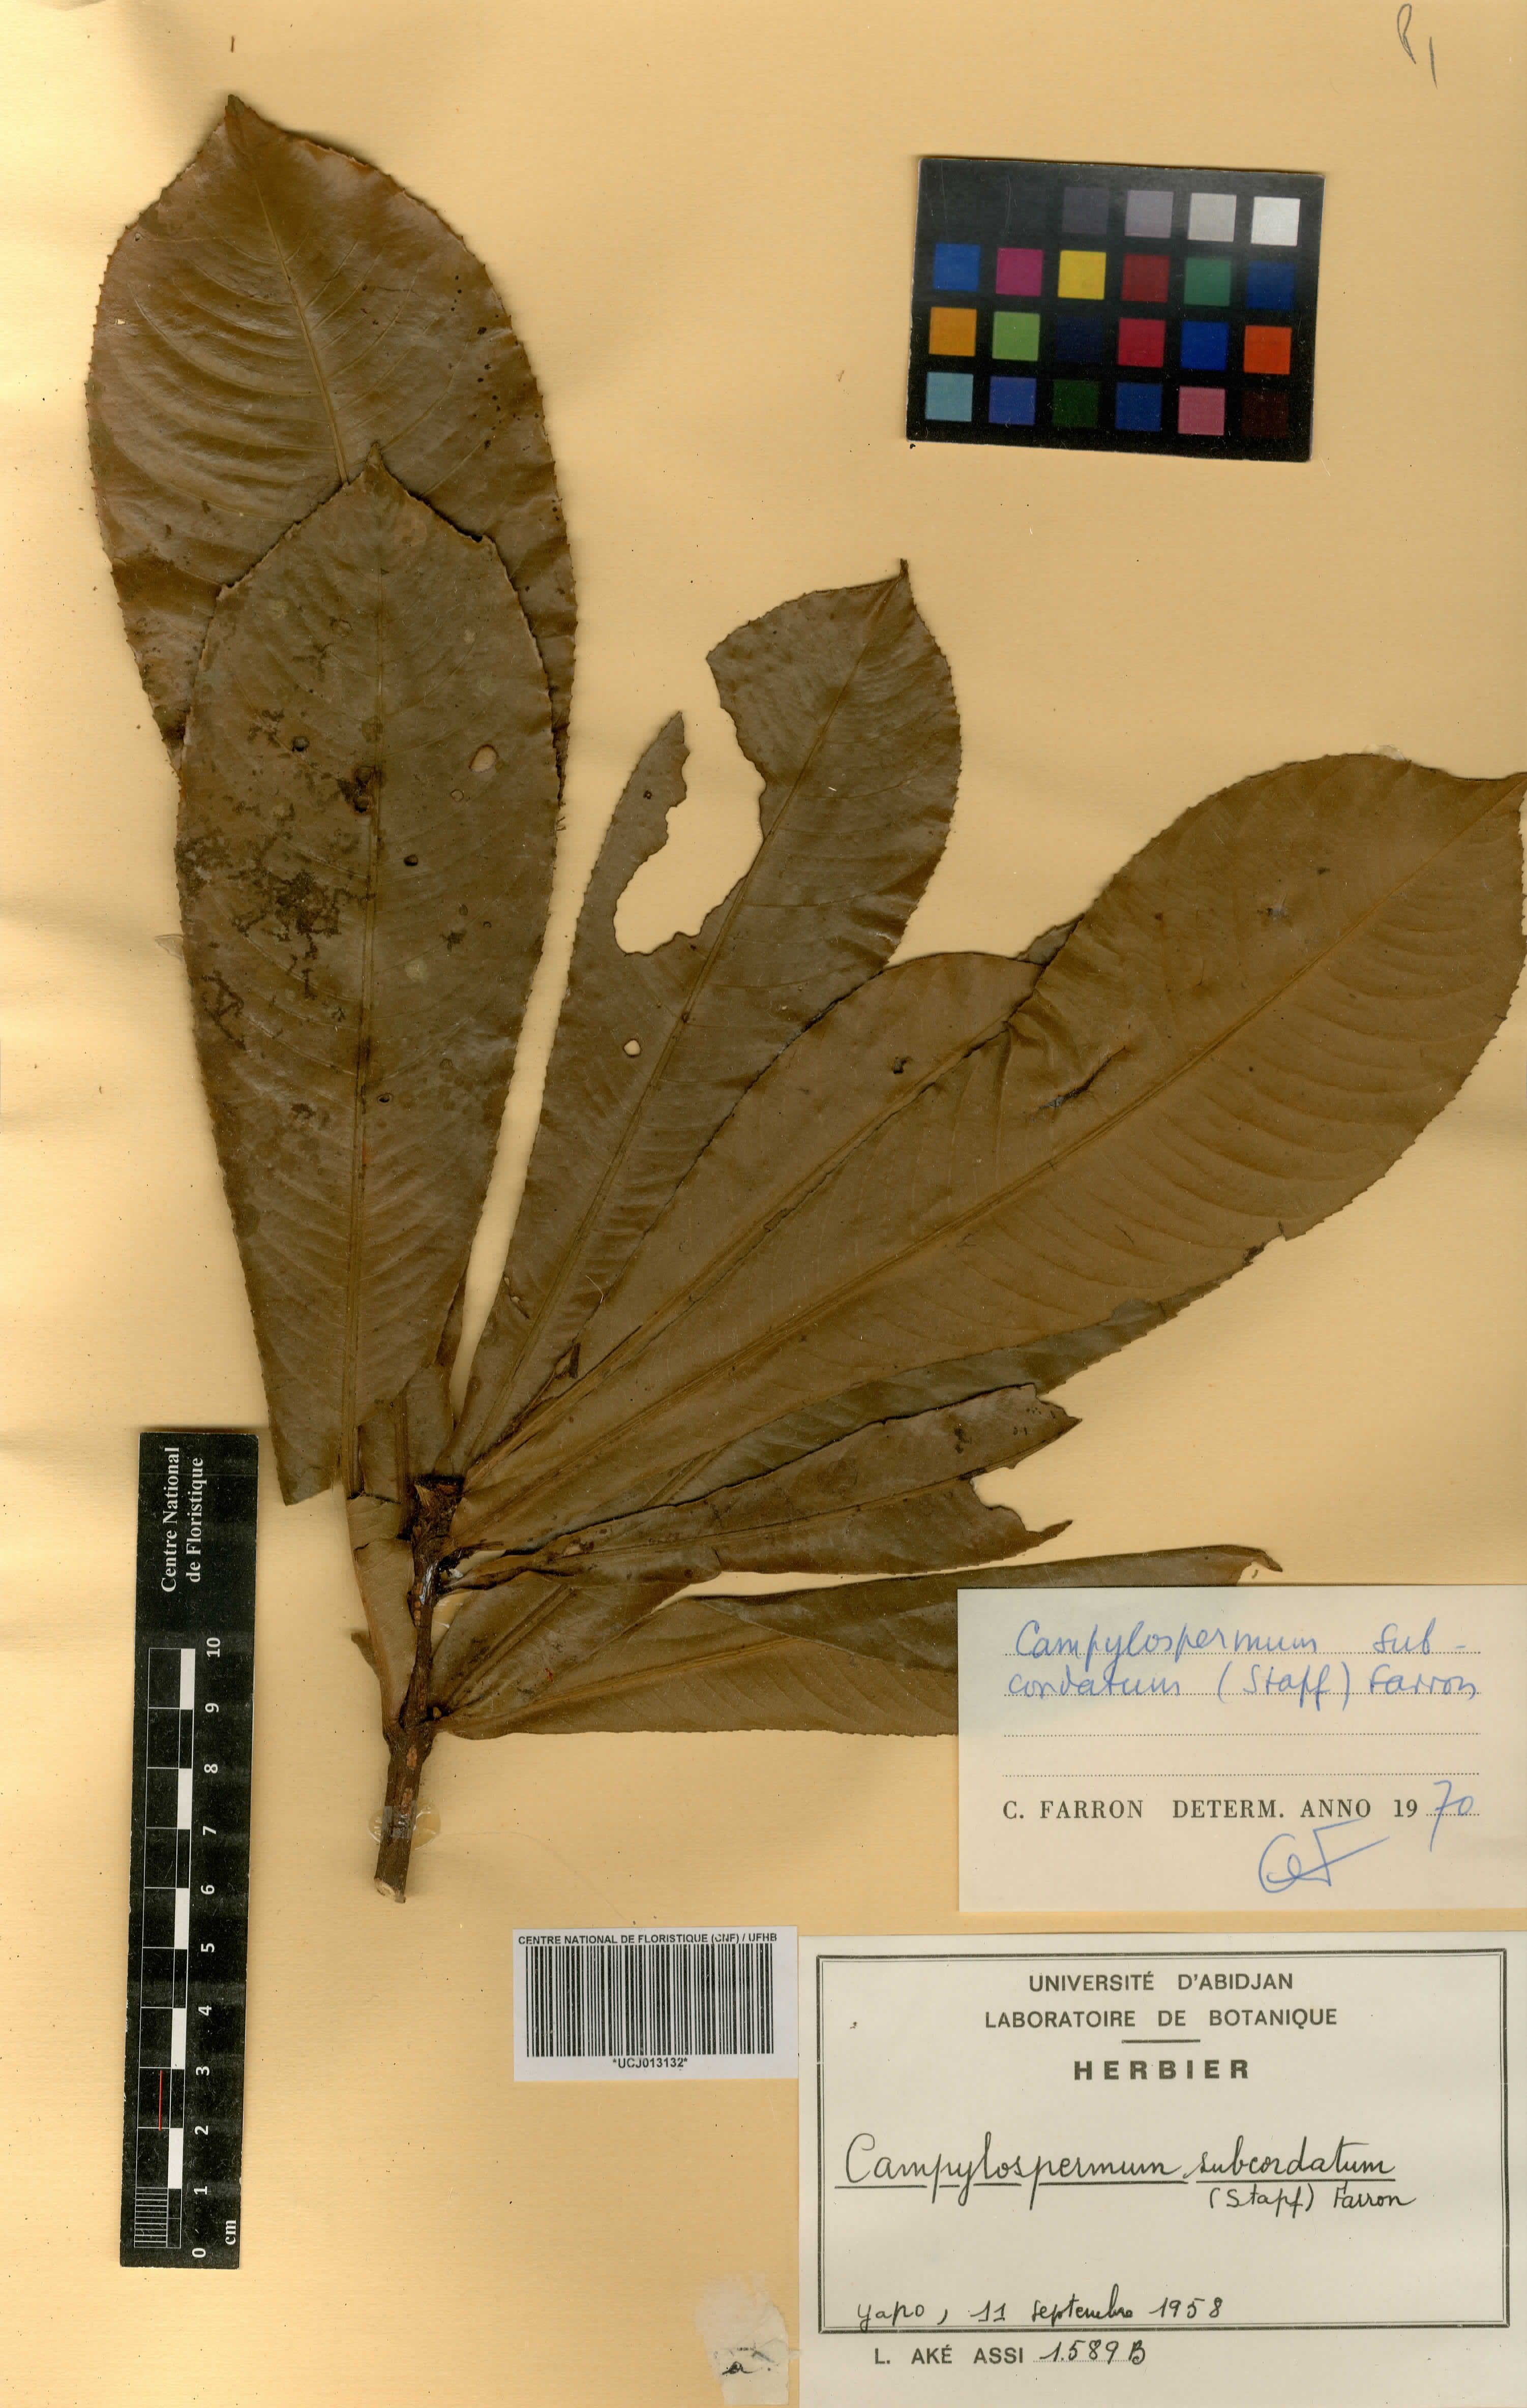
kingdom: Plantae
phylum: Tracheophyta
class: Magnoliopsida
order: Malpighiales
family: Ochnaceae
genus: Campylospermum
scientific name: Campylospermum subcordatum
